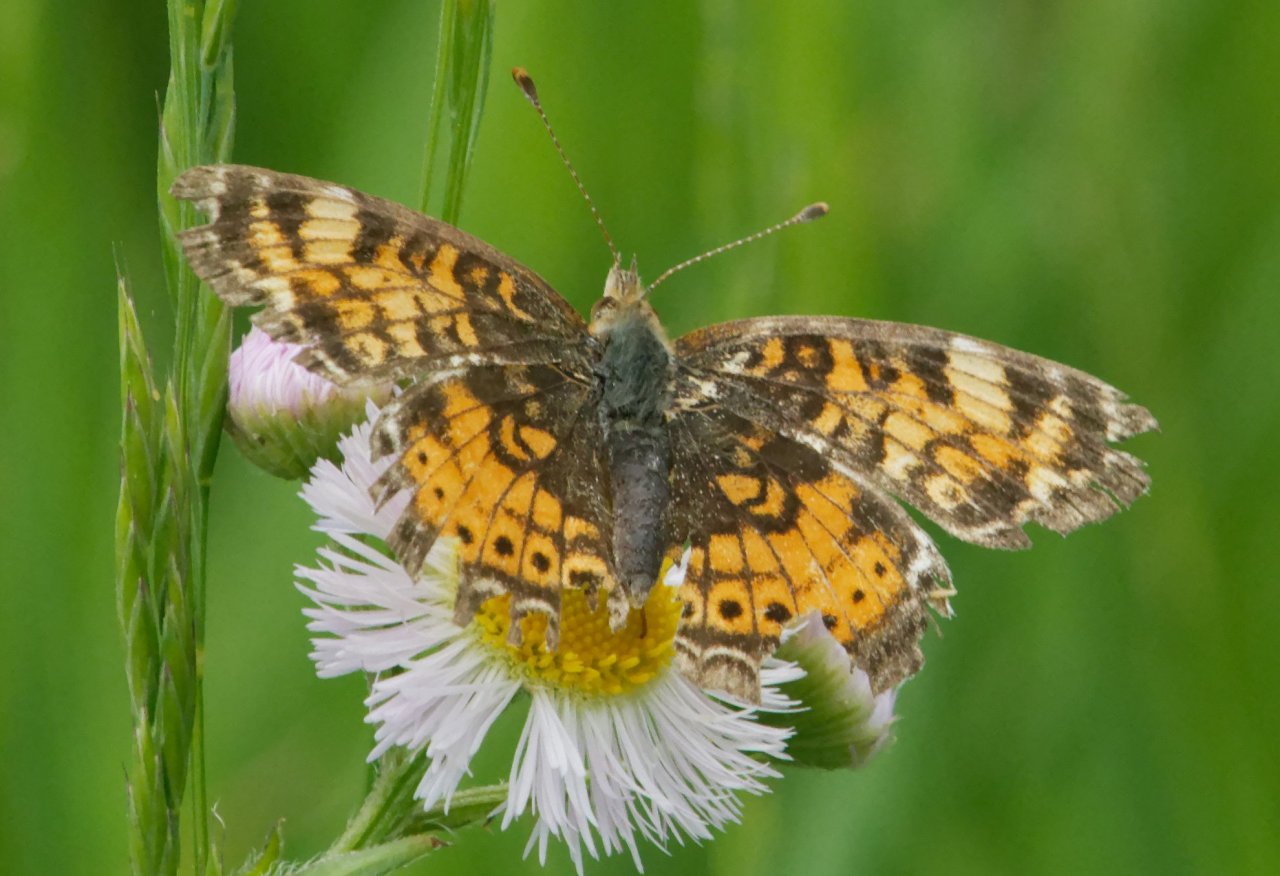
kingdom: Animalia
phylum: Arthropoda
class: Insecta
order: Lepidoptera
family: Nymphalidae
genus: Phyciodes
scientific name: Phyciodes
